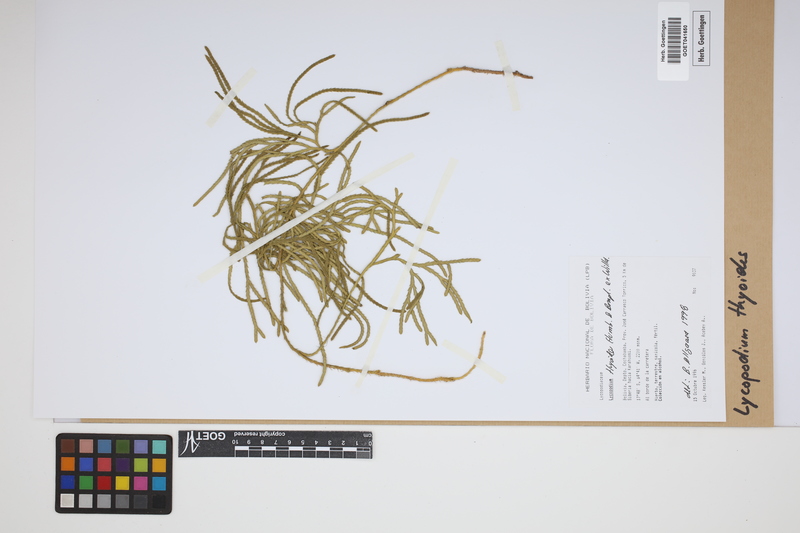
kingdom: Plantae
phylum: Tracheophyta
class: Lycopodiopsida
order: Lycopodiales
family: Lycopodiaceae
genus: Diphasiastrum
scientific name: Diphasiastrum thyoides
